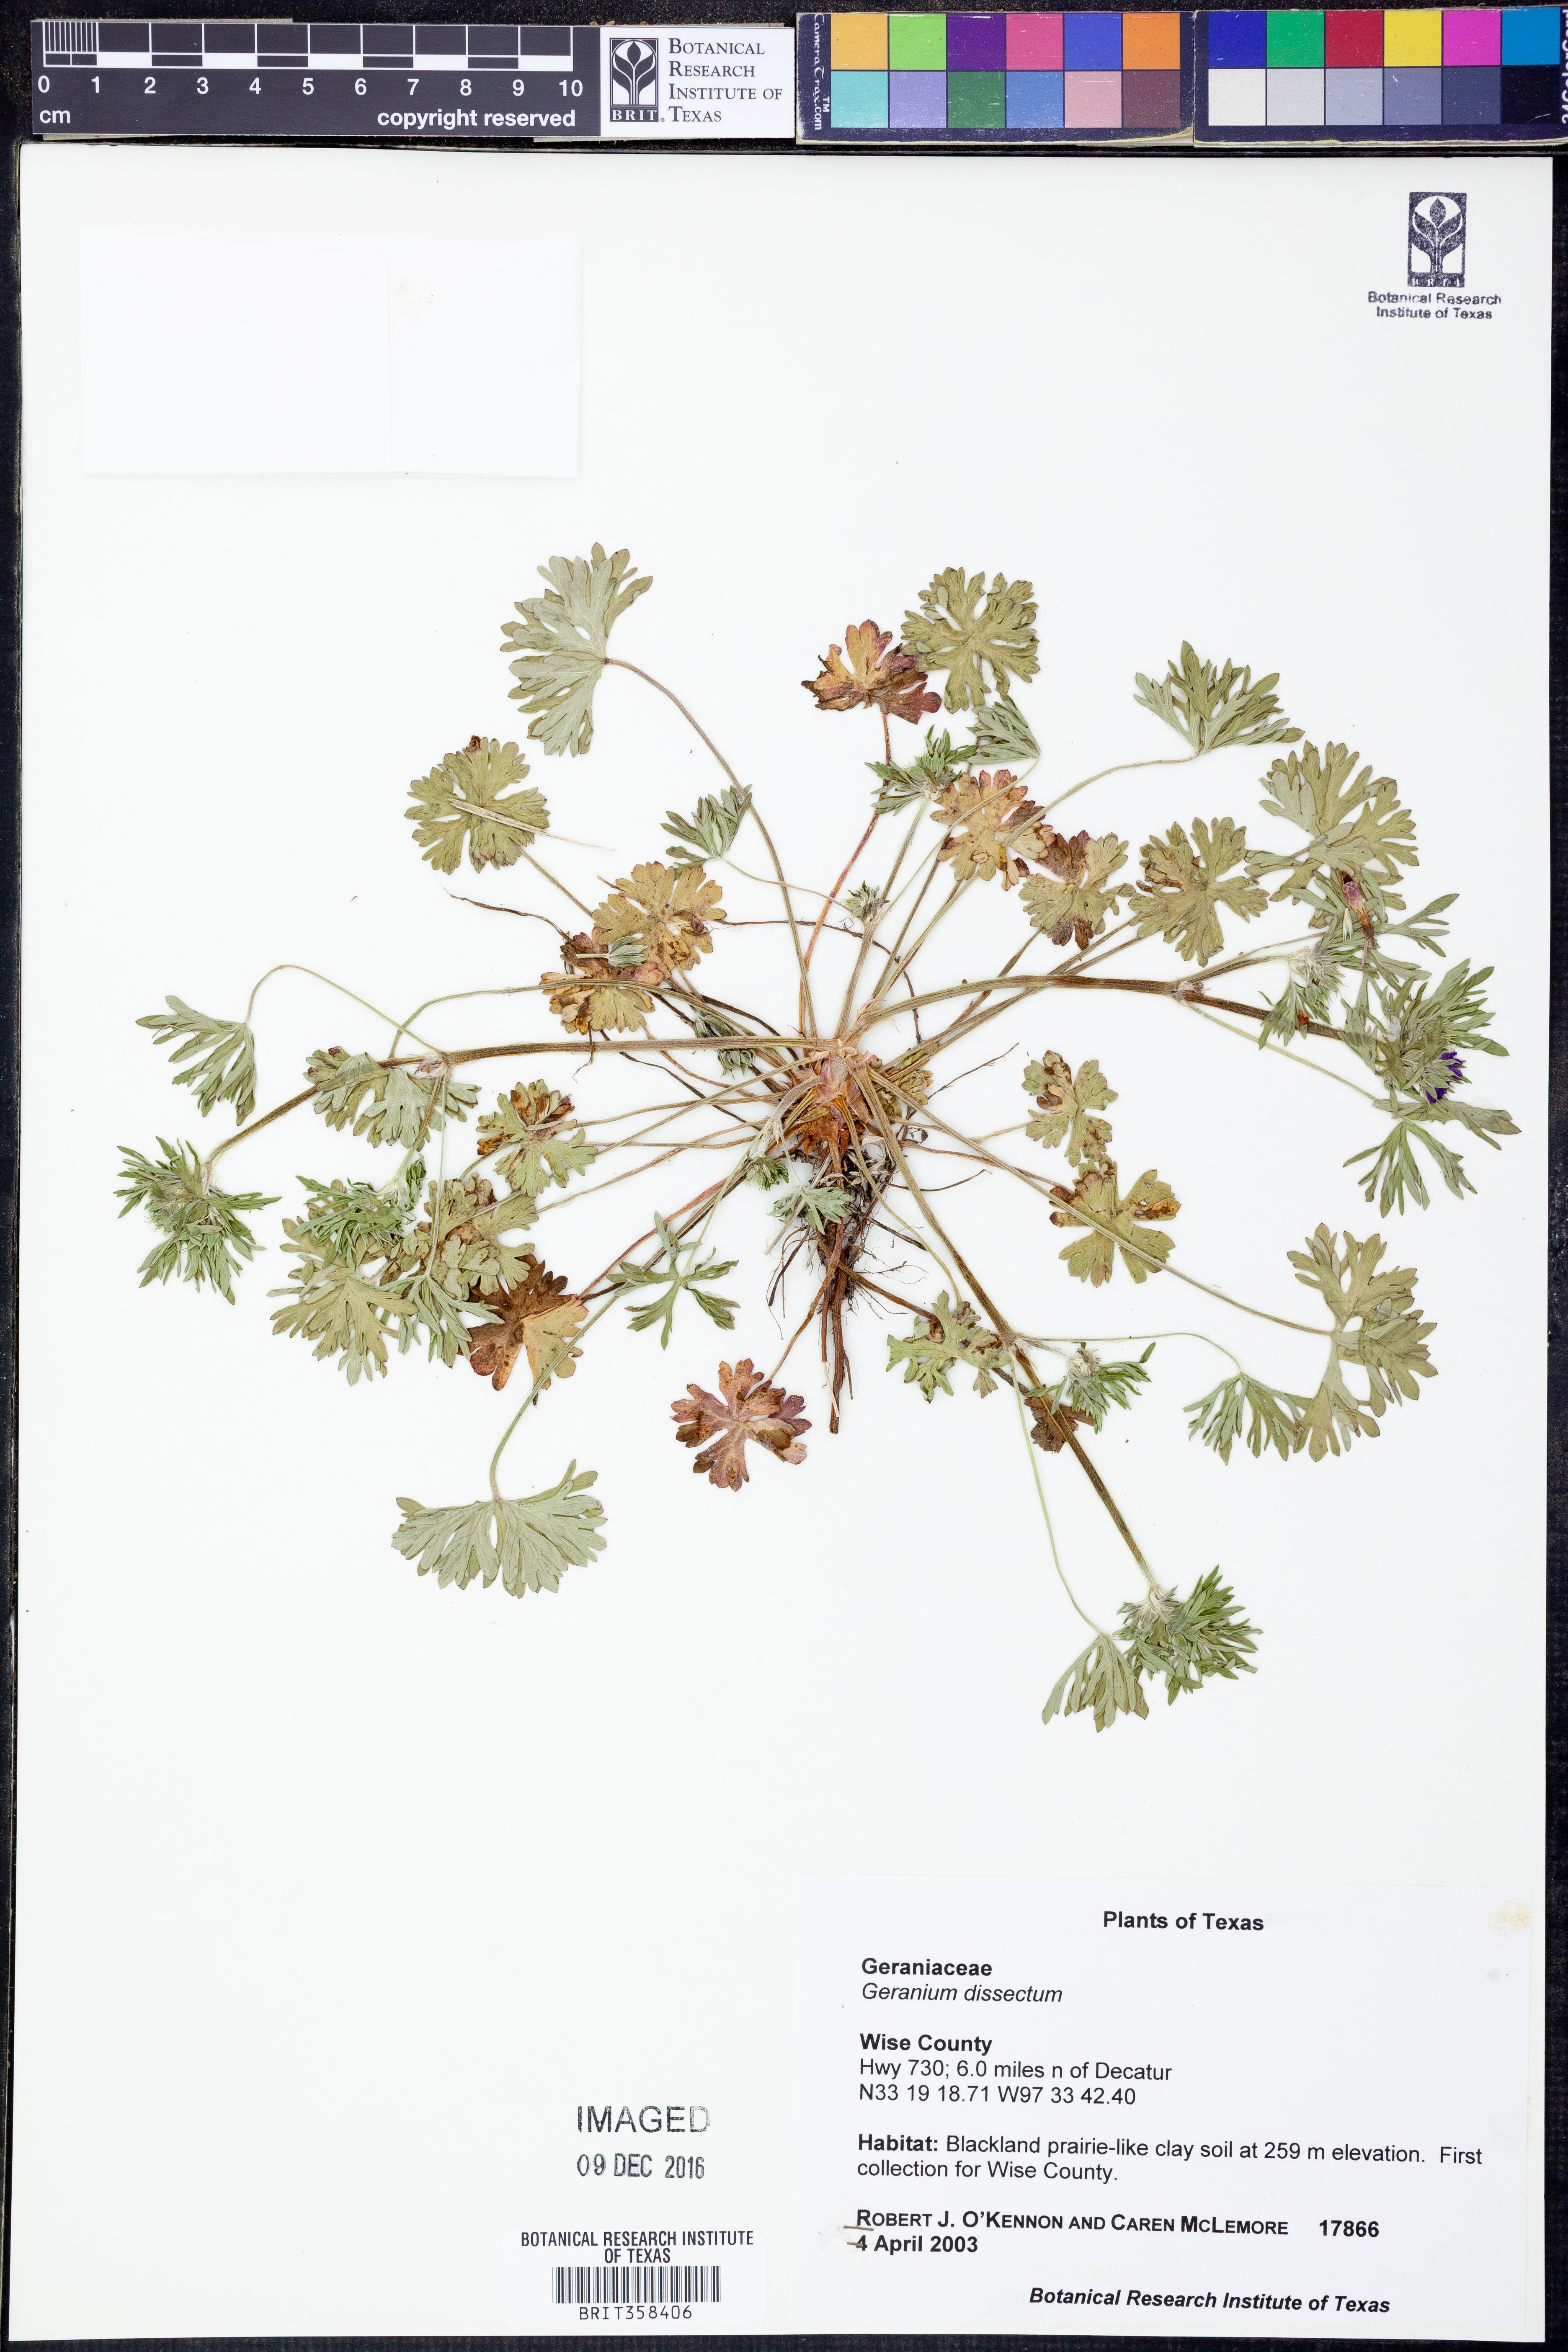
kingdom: Plantae
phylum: Tracheophyta
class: Magnoliopsida
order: Geraniales
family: Geraniaceae
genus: Geranium
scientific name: Geranium dissectum
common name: Cut-leaved crane's-bill
